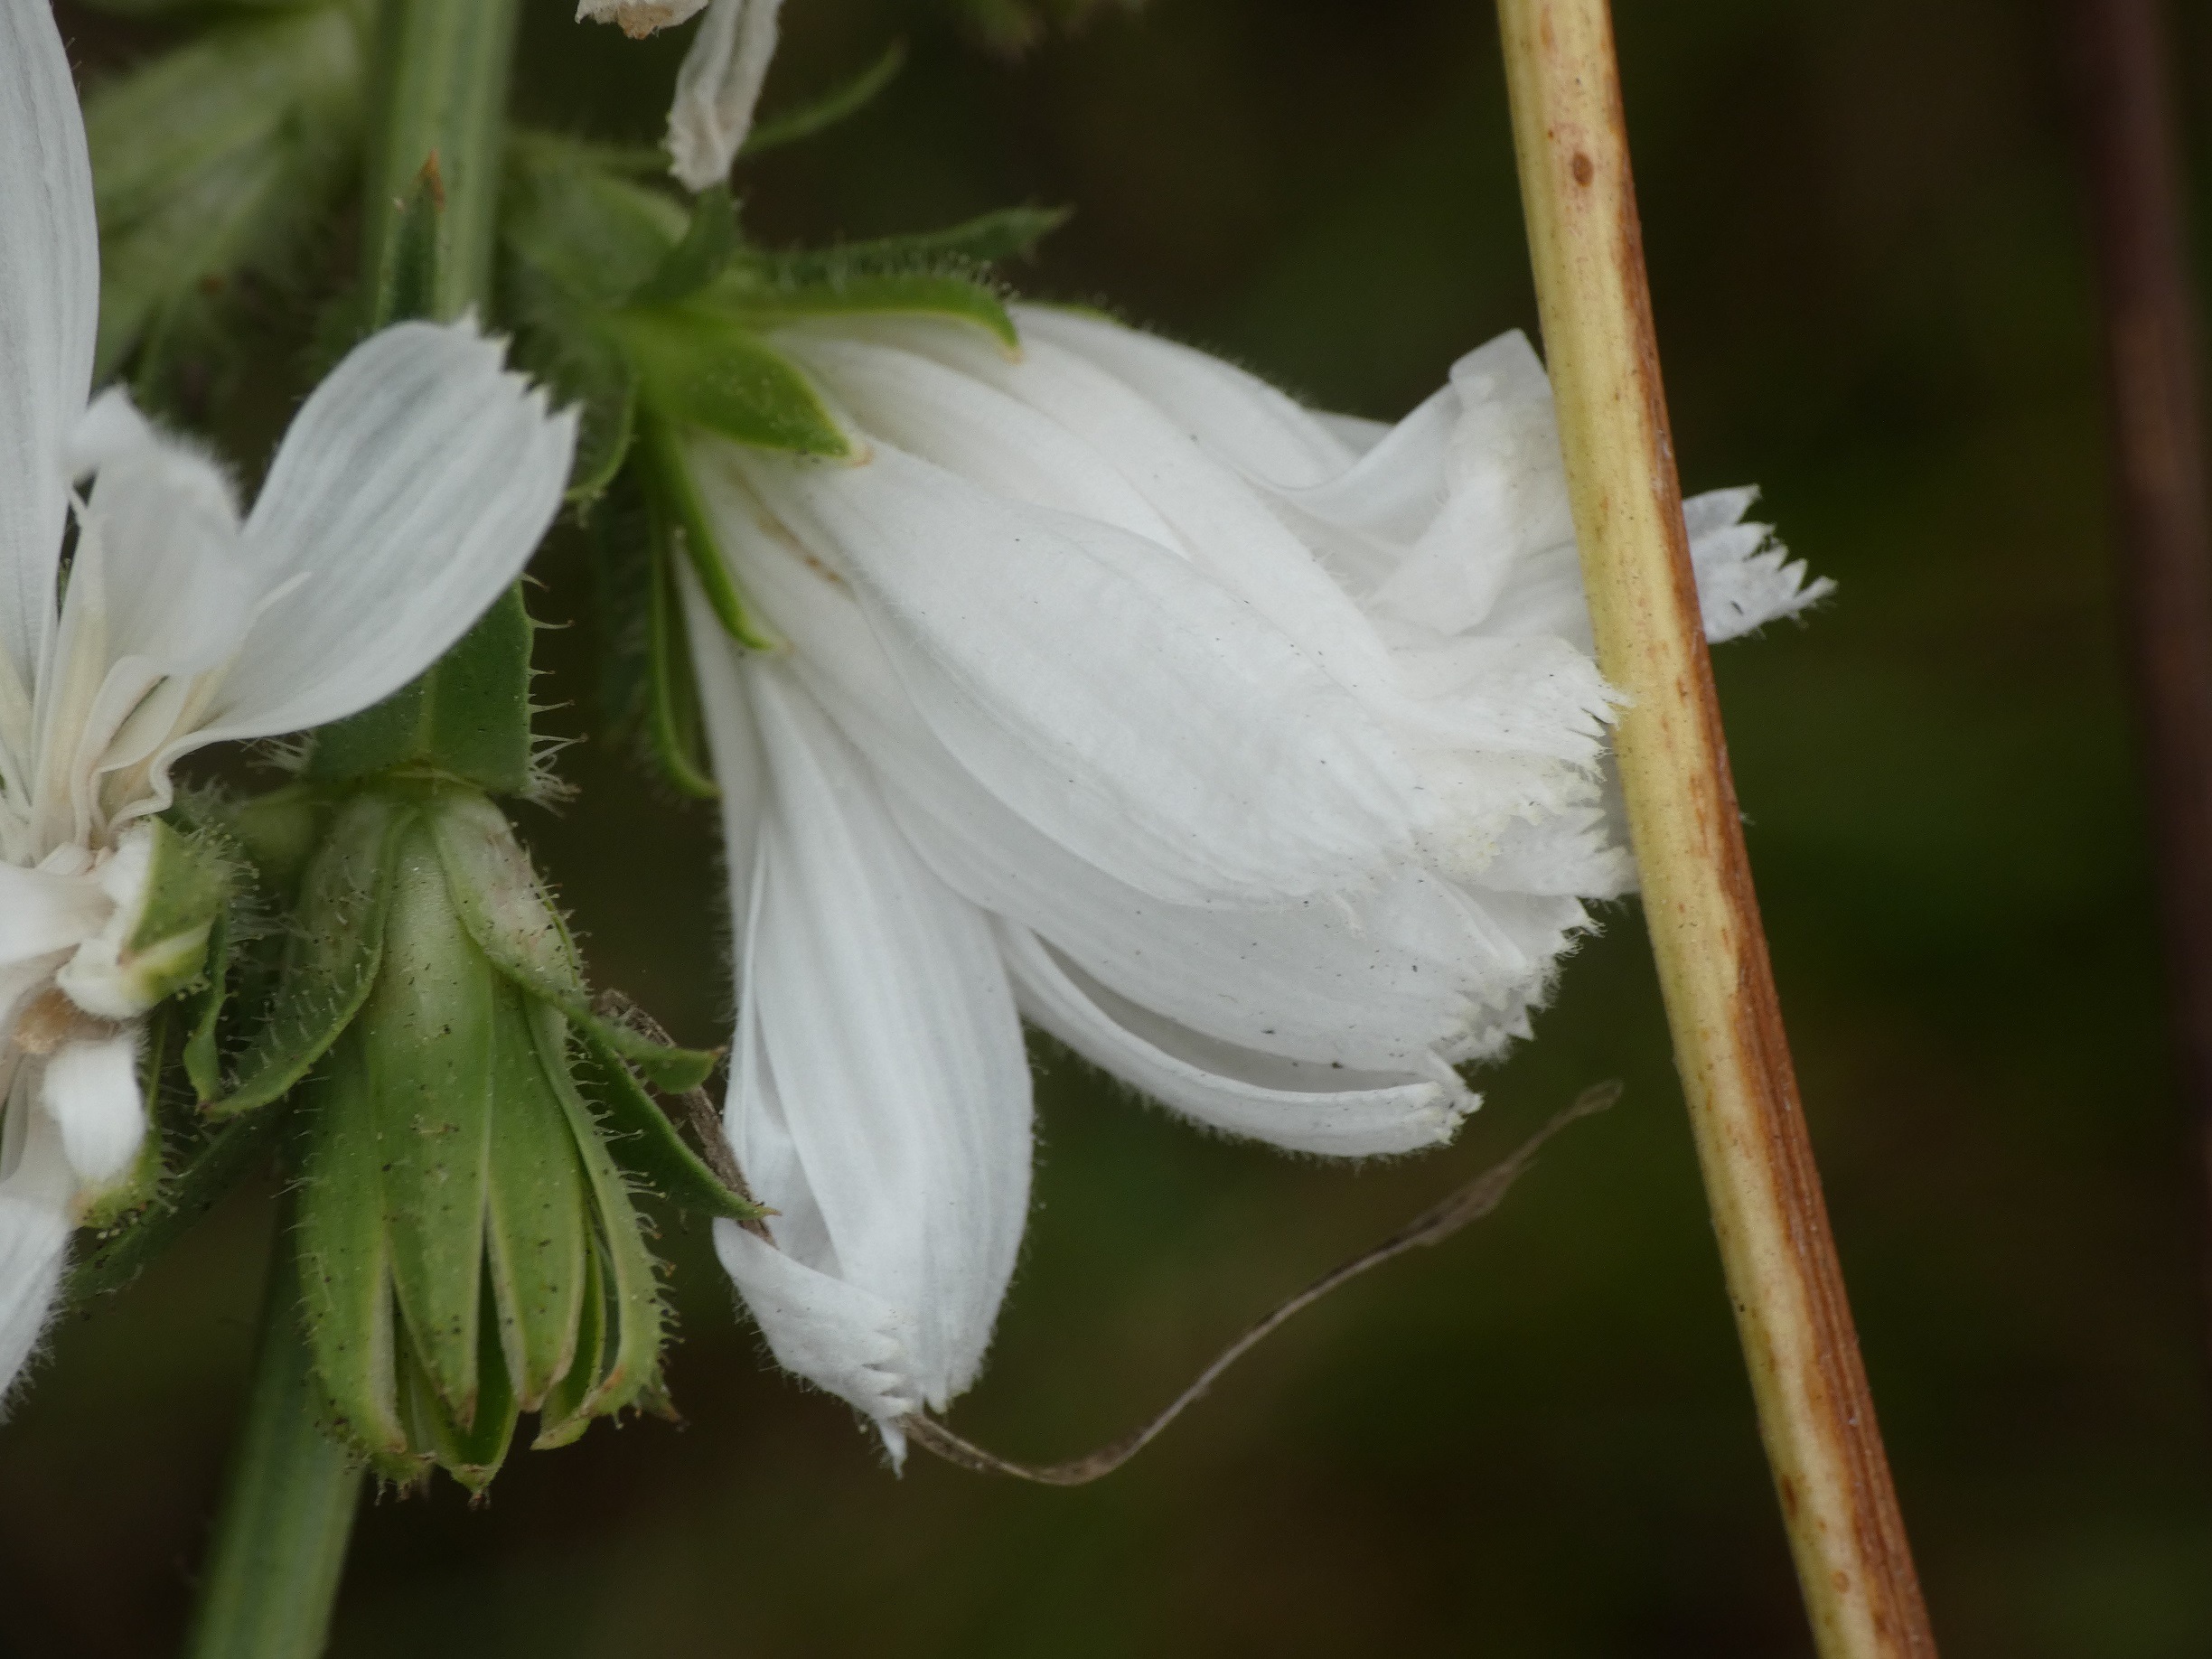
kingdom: Plantae
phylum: Tracheophyta
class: Magnoliopsida
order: Asterales
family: Asteraceae
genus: Cichorium
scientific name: Cichorium intybus
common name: Cikorie
